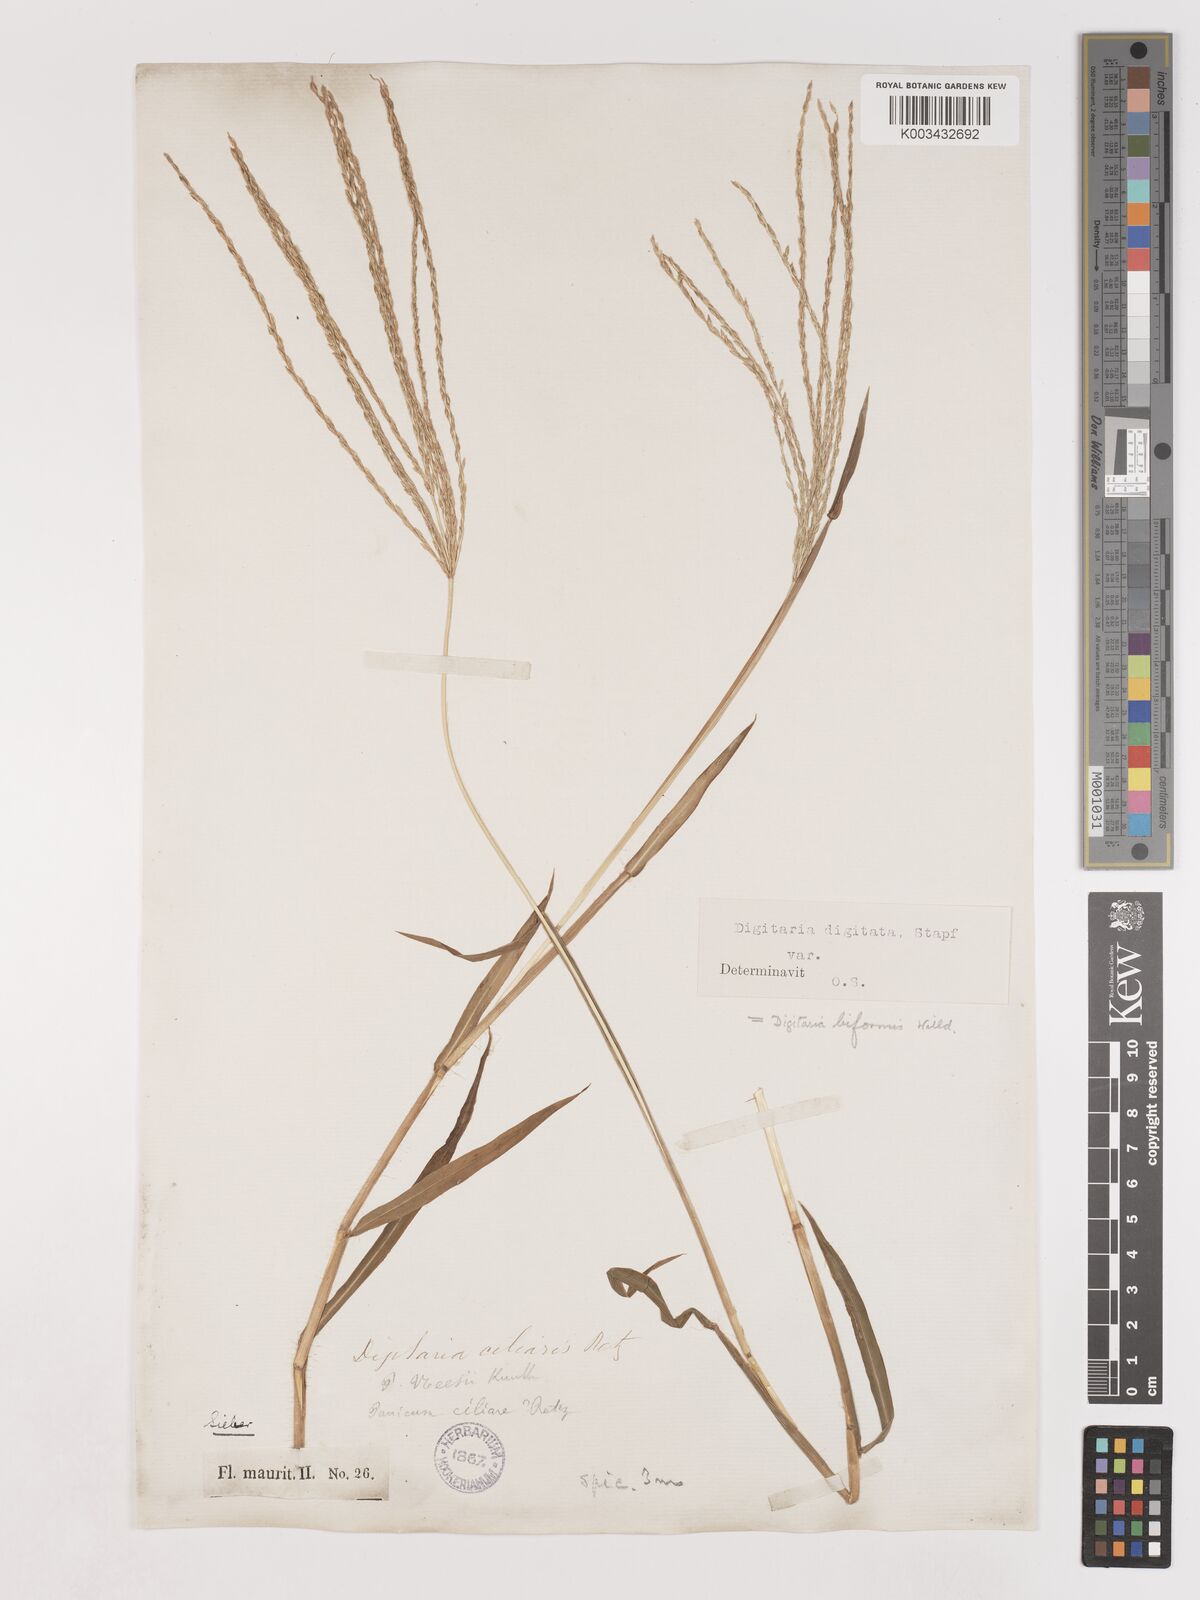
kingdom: Plantae
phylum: Tracheophyta
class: Liliopsida
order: Poales
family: Poaceae
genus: Digitaria
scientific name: Digitaria ciliaris
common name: Tropical finger-grass
